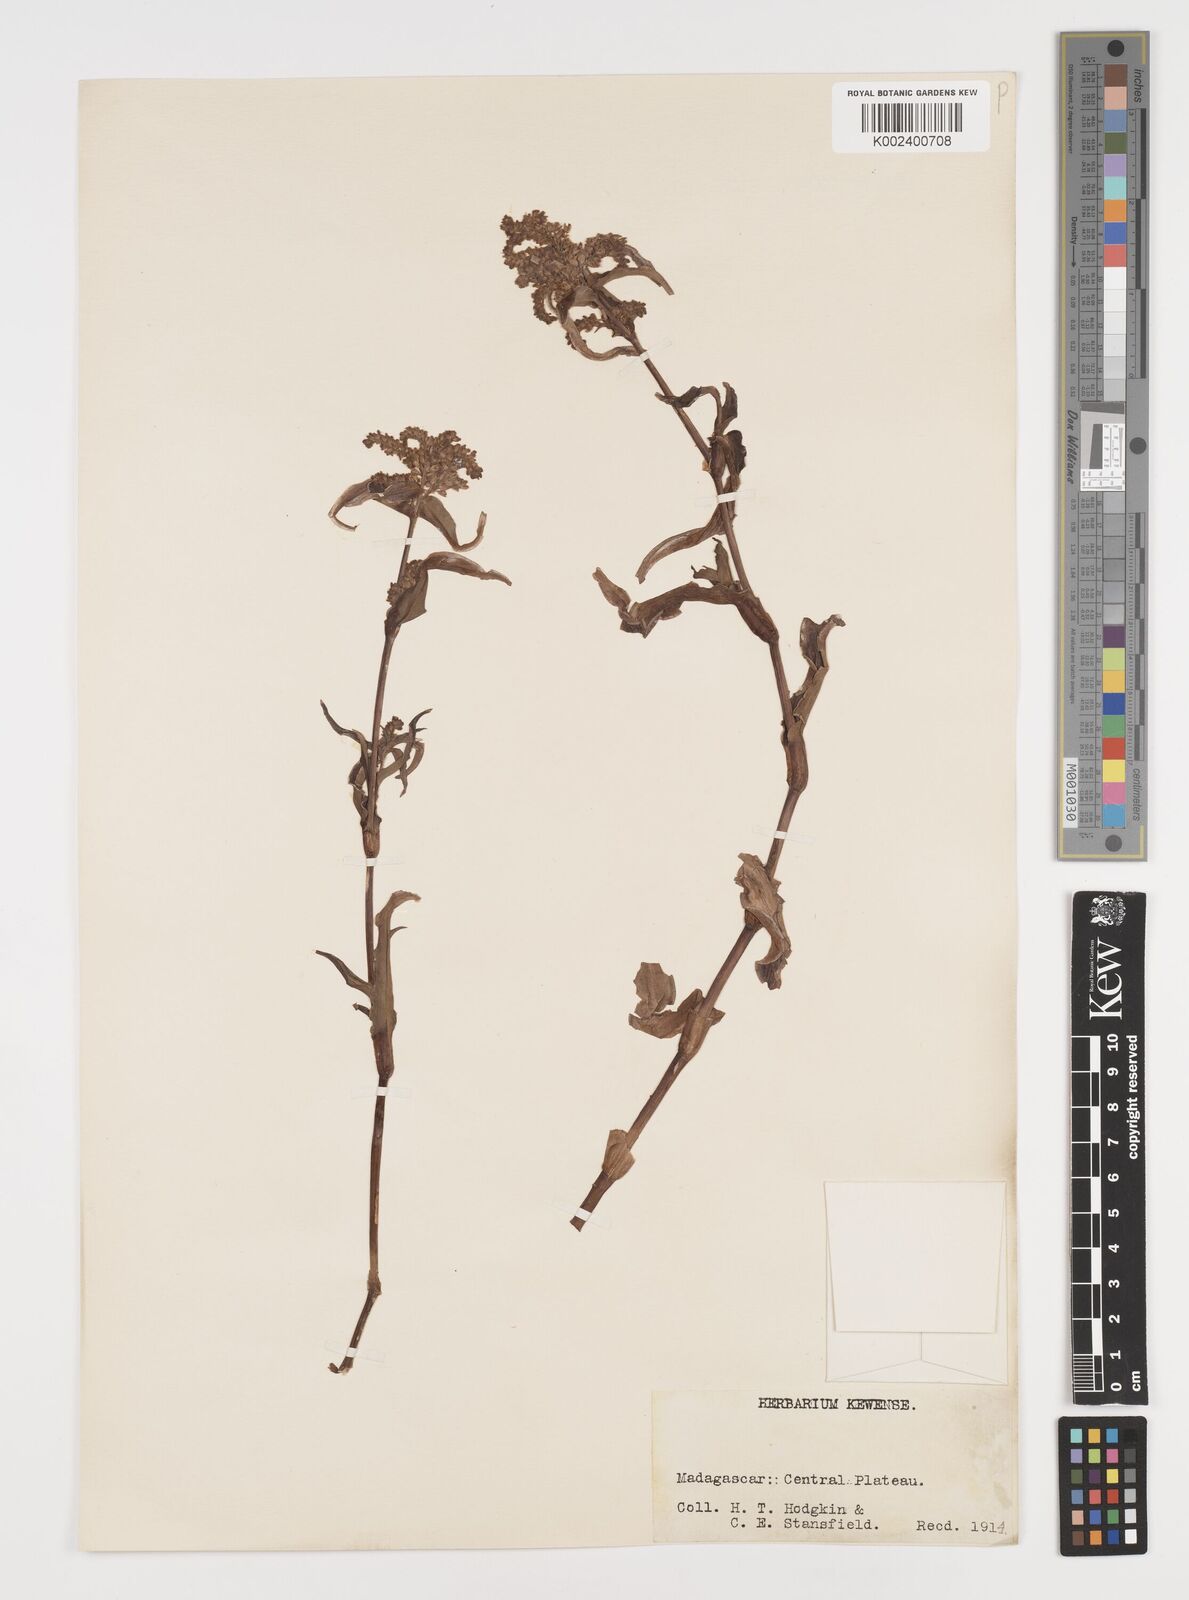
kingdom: Plantae
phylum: Tracheophyta
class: Liliopsida
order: Commelinales
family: Commelinaceae
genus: Floscopa
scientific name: Floscopa glomerata
